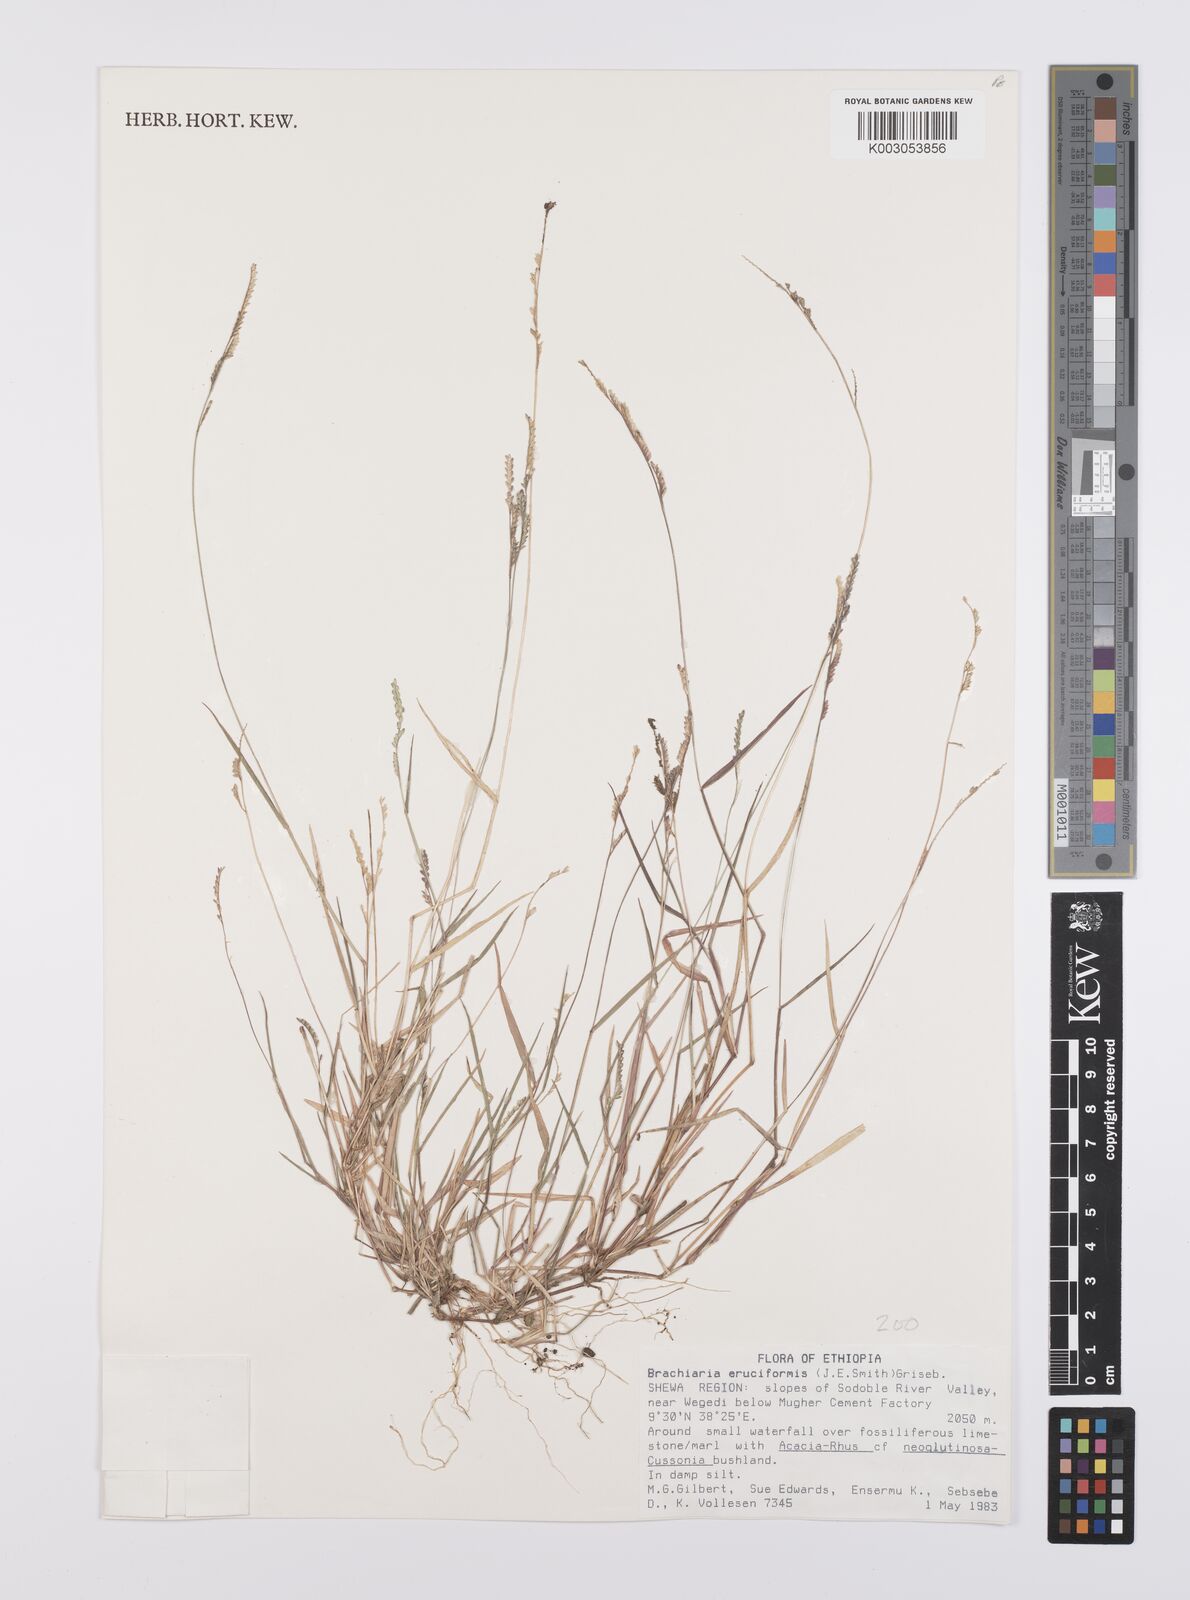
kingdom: Plantae
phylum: Tracheophyta
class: Liliopsida
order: Poales
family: Poaceae
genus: Moorochloa
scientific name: Moorochloa eruciformis
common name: Sweet signalgrass
